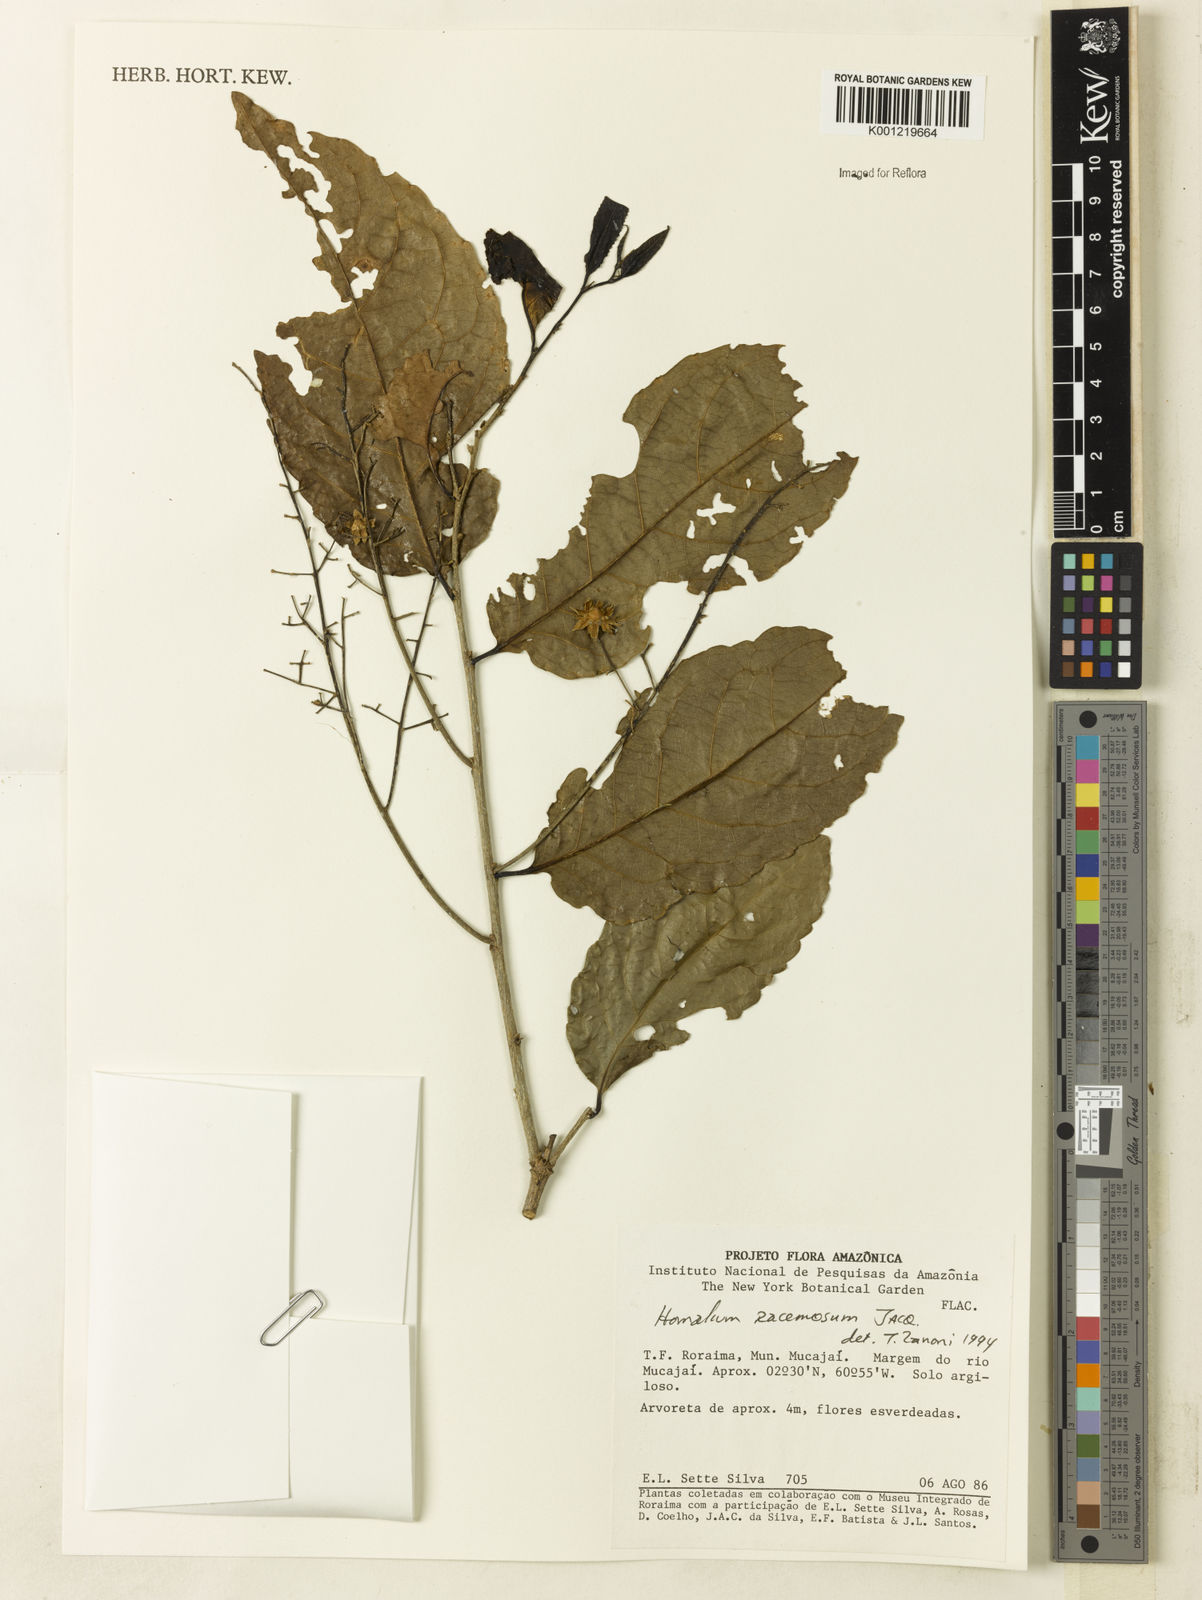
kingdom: Plantae
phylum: Tracheophyta
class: Magnoliopsida
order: Malpighiales
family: Salicaceae
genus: Homalium
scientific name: Homalium racemosum
